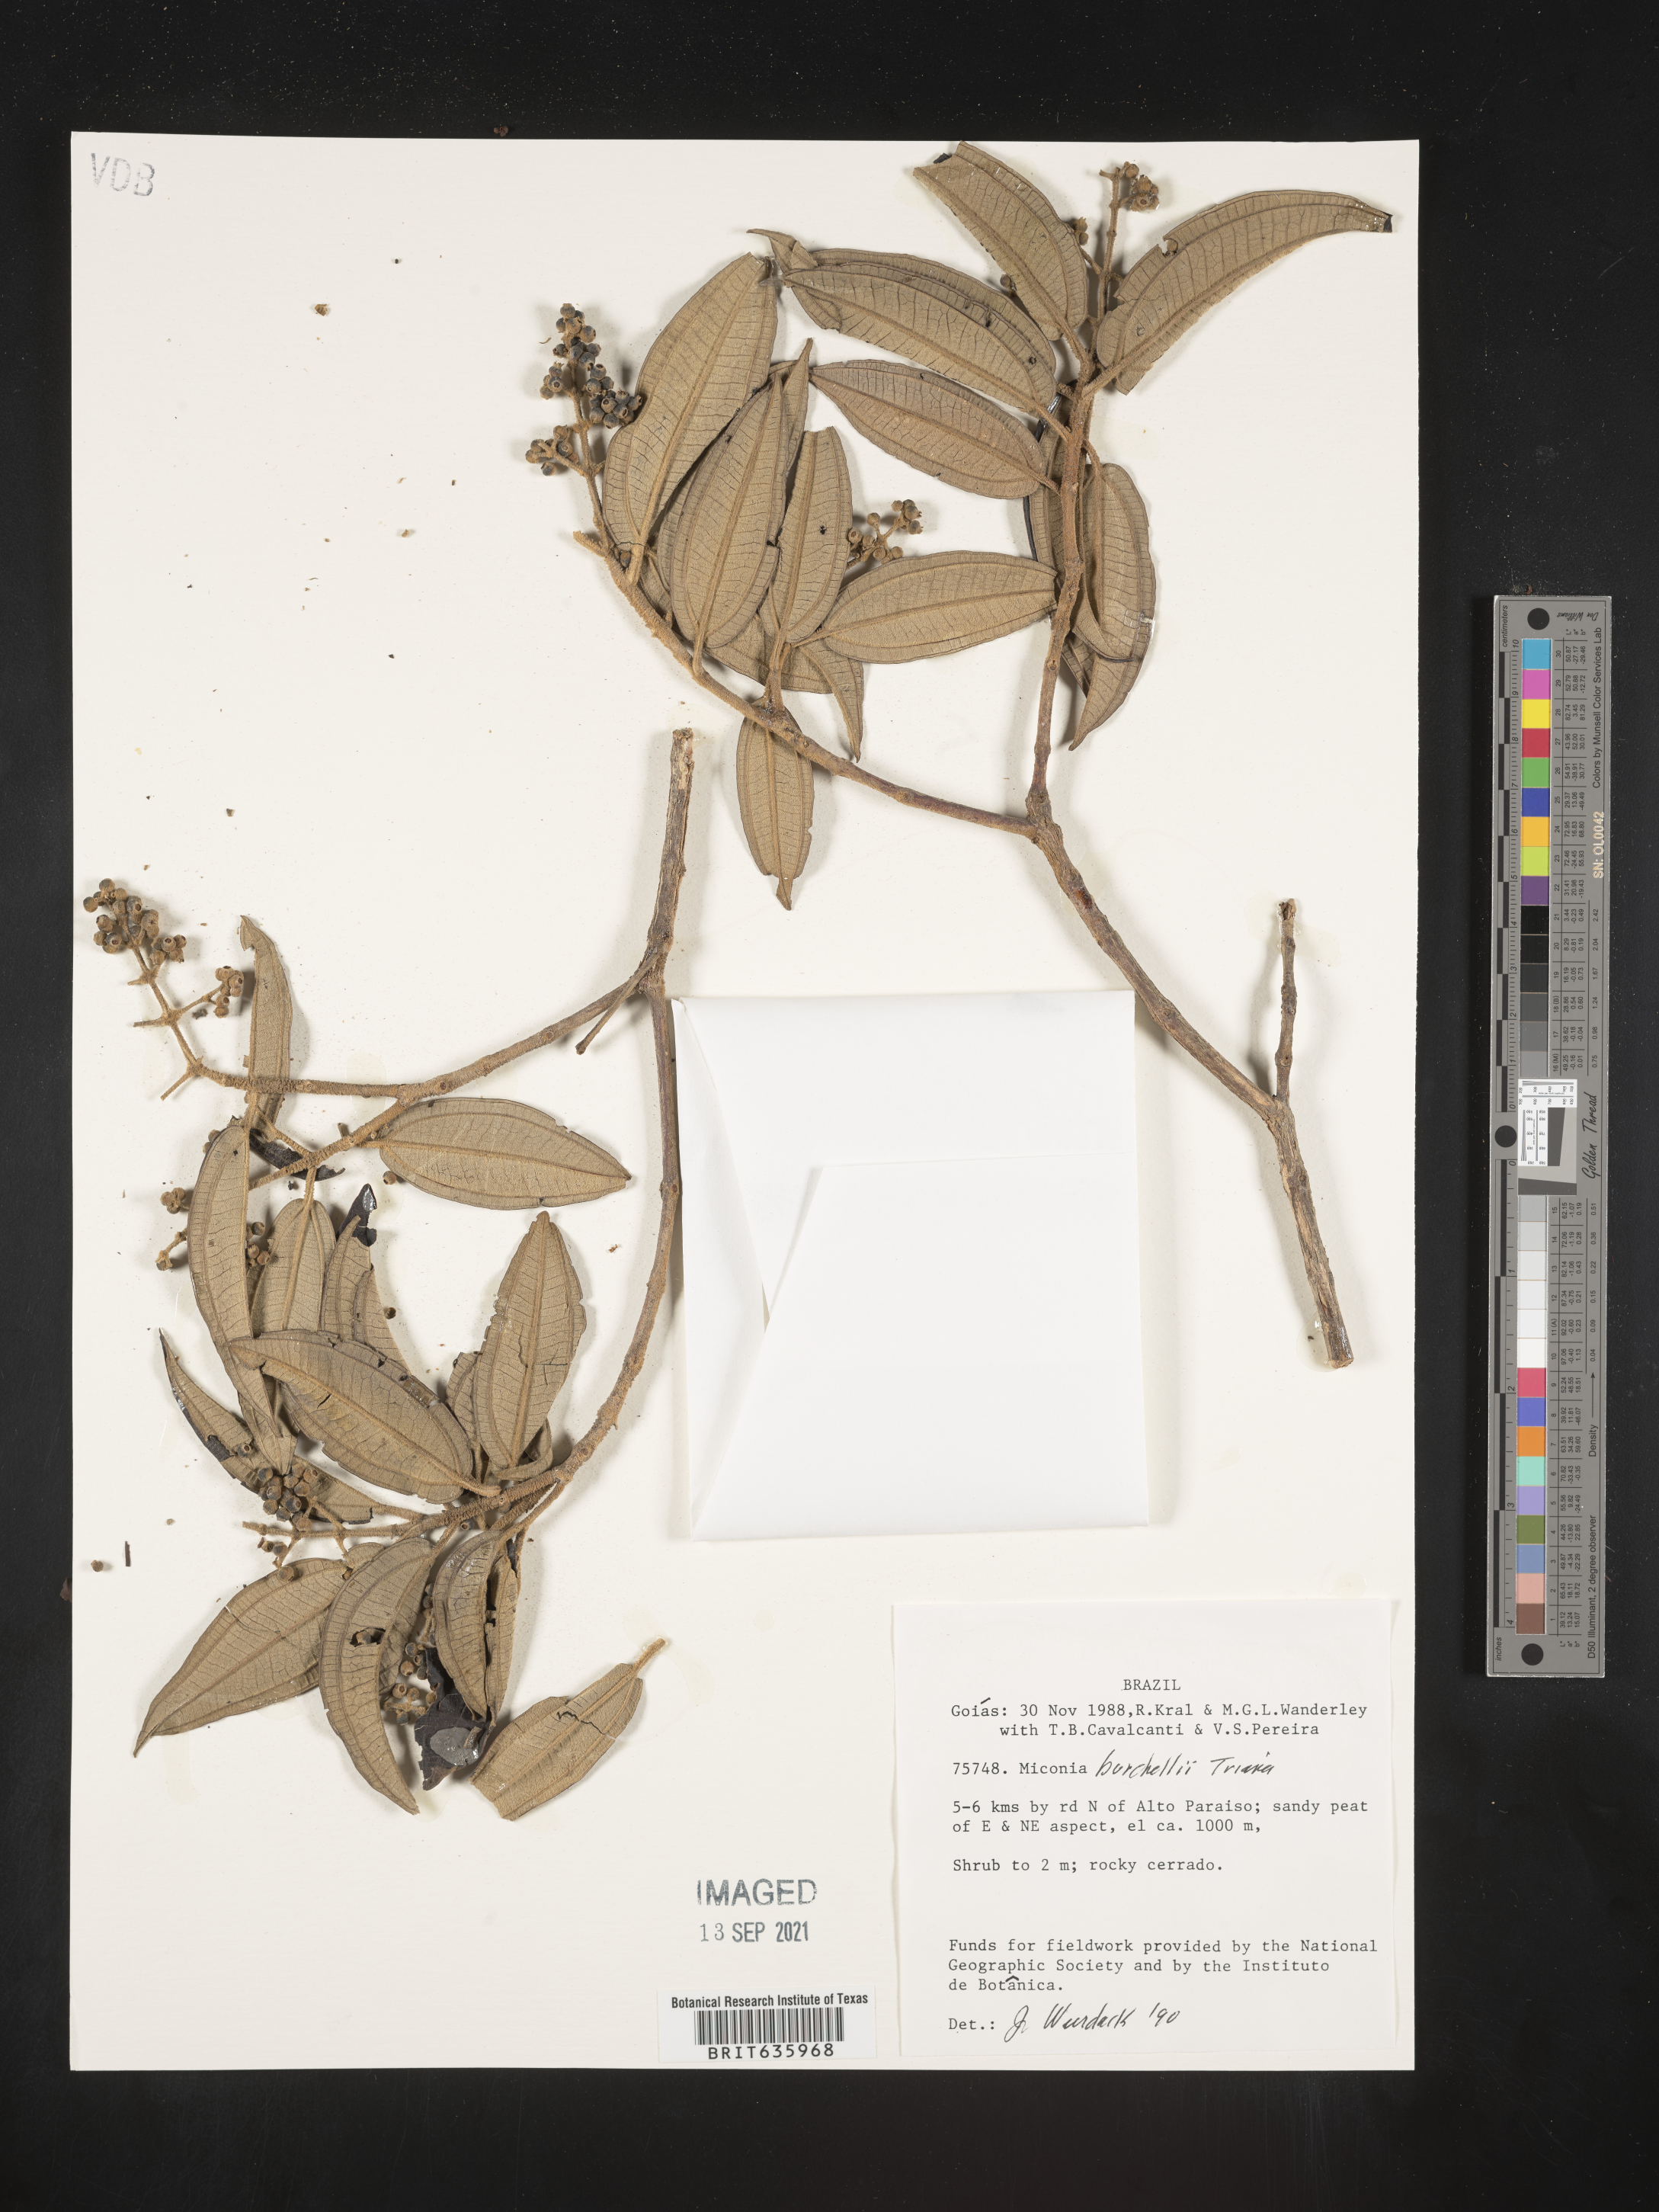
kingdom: Plantae
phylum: Tracheophyta
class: Magnoliopsida
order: Myrtales
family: Melastomataceae
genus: Miconia
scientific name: Miconia
